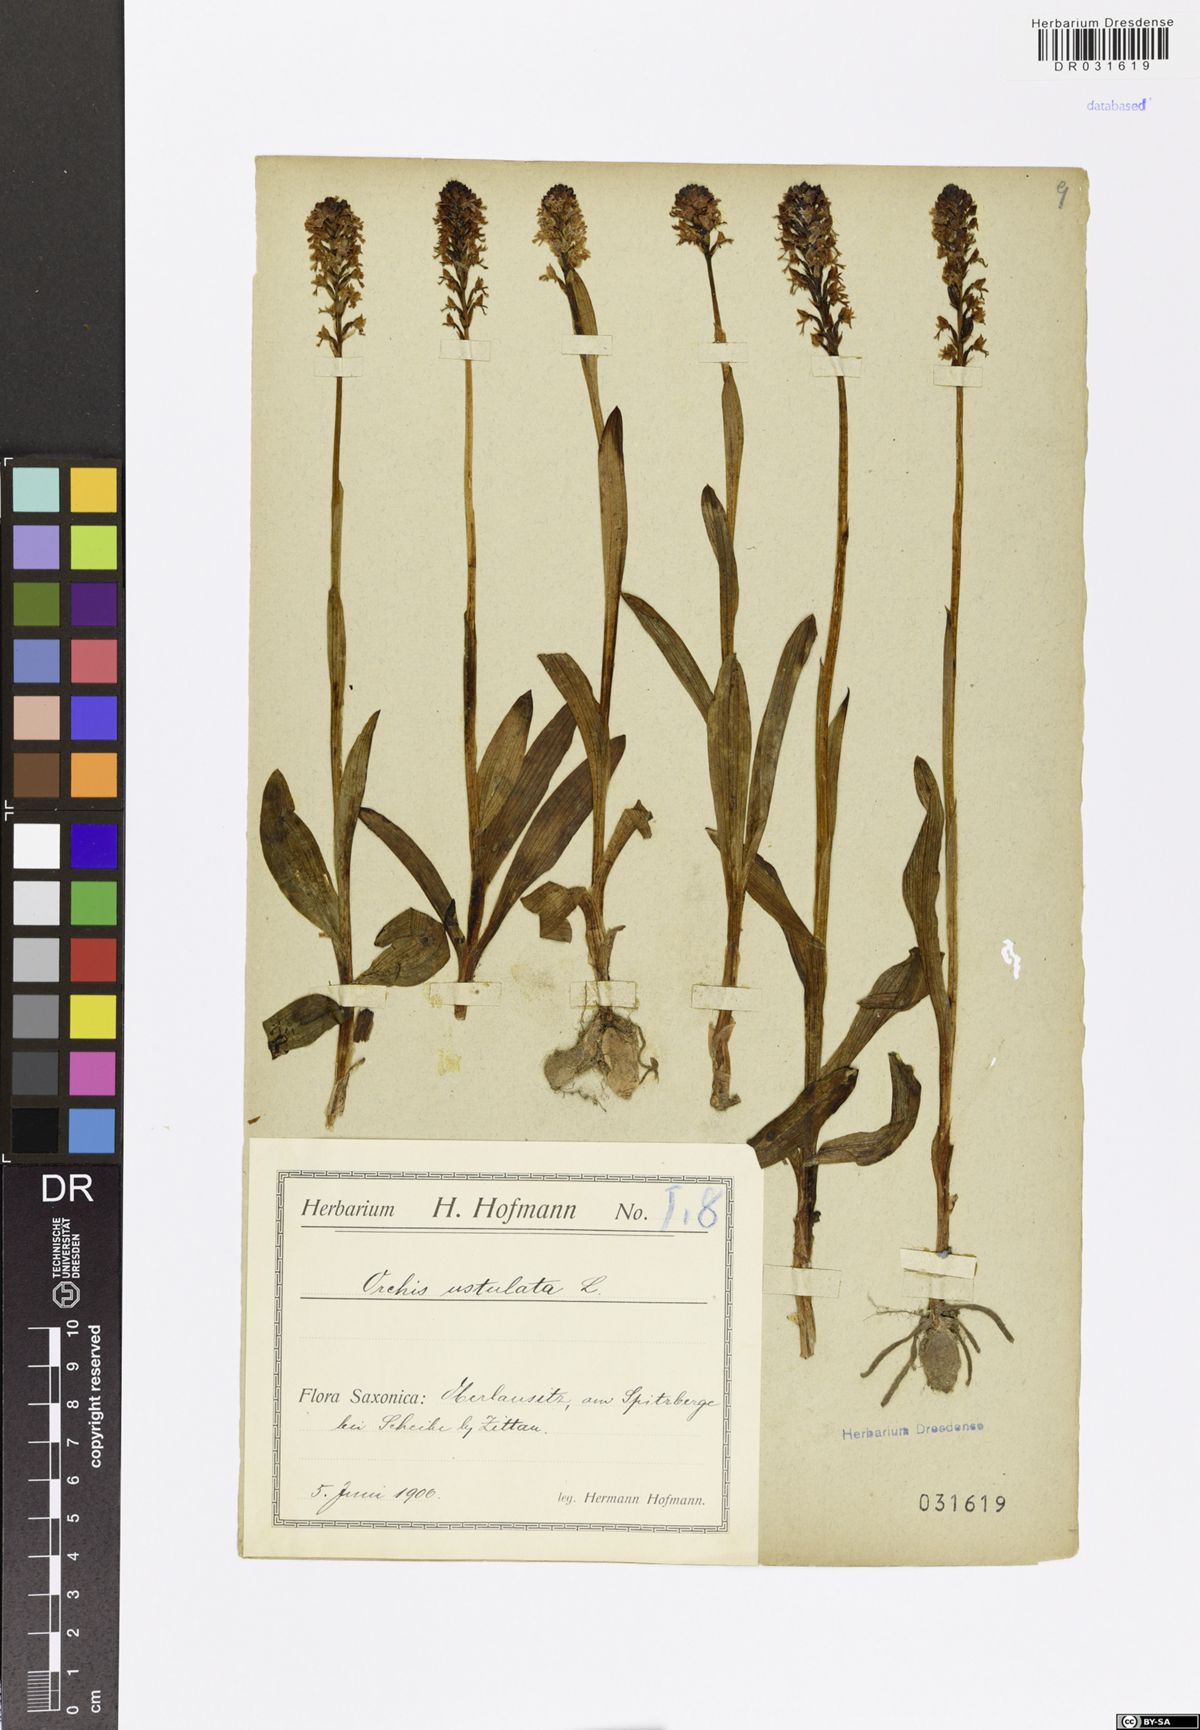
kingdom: Plantae
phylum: Tracheophyta
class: Liliopsida
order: Asparagales
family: Orchidaceae
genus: Neotinea
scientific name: Neotinea ustulata
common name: Burnt orchid
